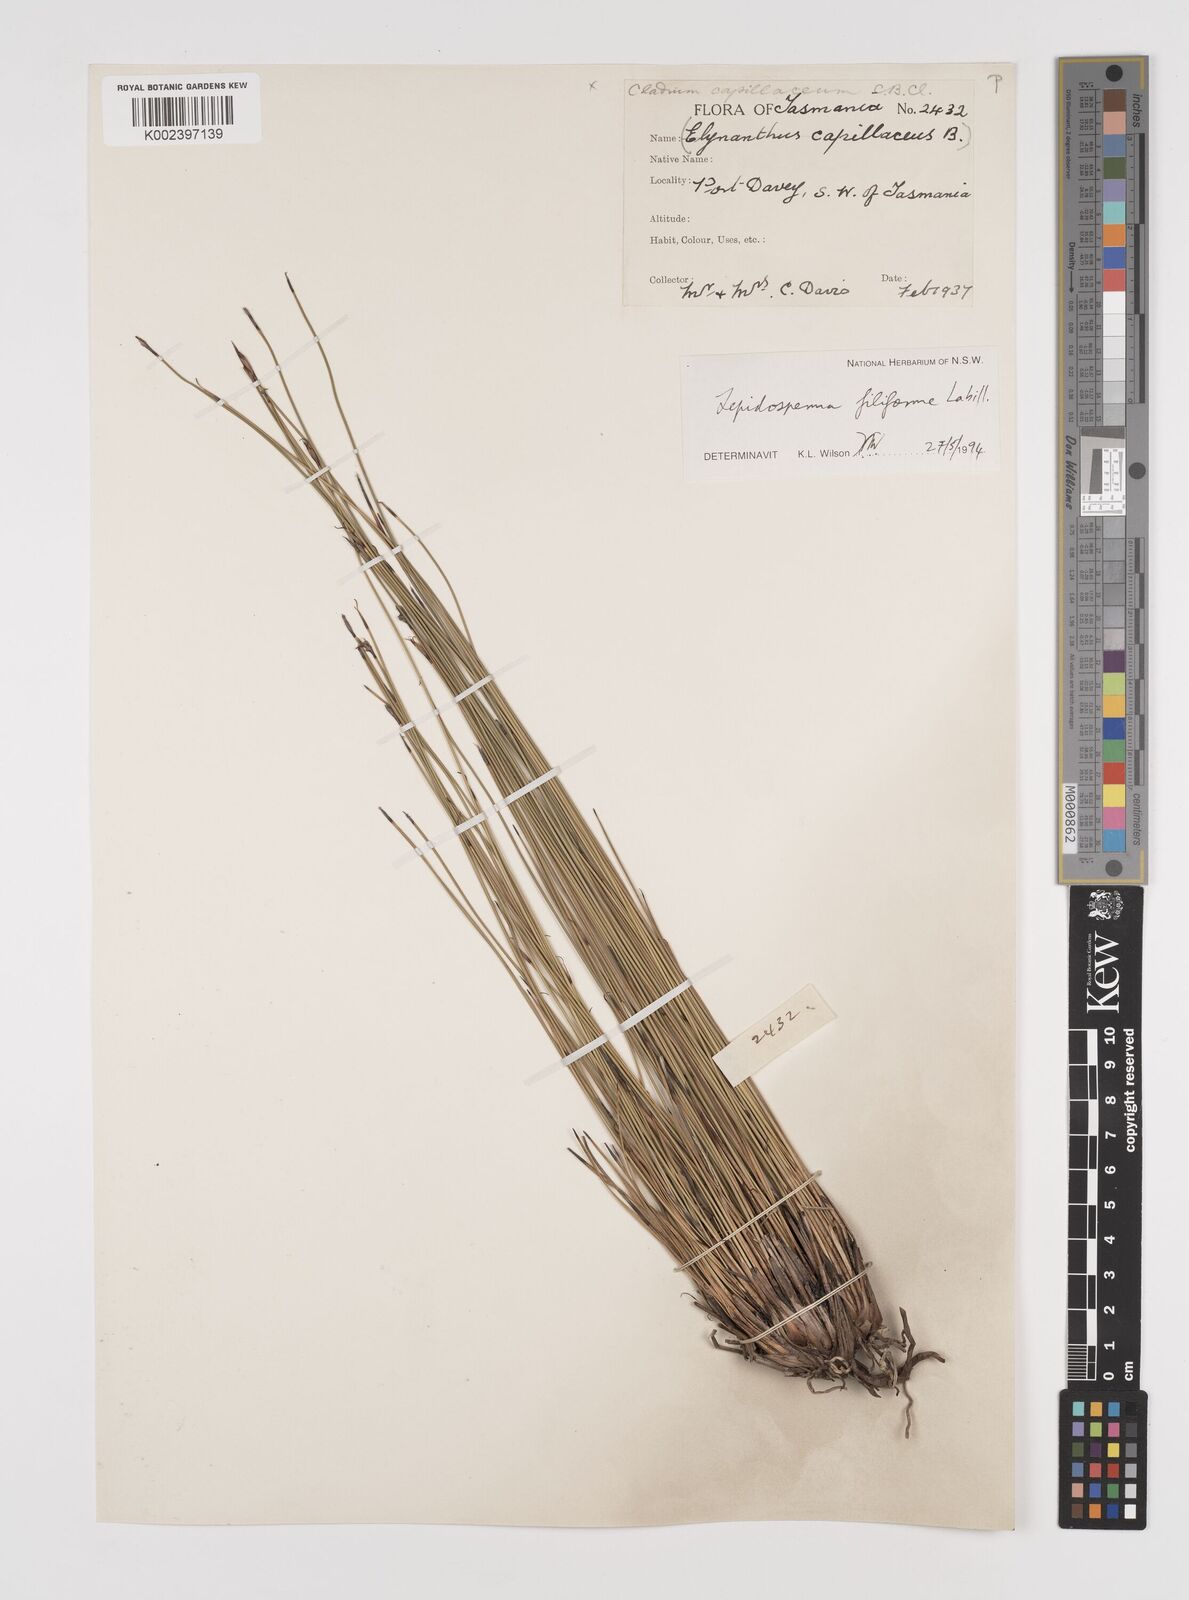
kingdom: Plantae
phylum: Tracheophyta
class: Liliopsida
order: Poales
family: Cyperaceae
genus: Lepidosperma
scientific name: Lepidosperma filiforme
